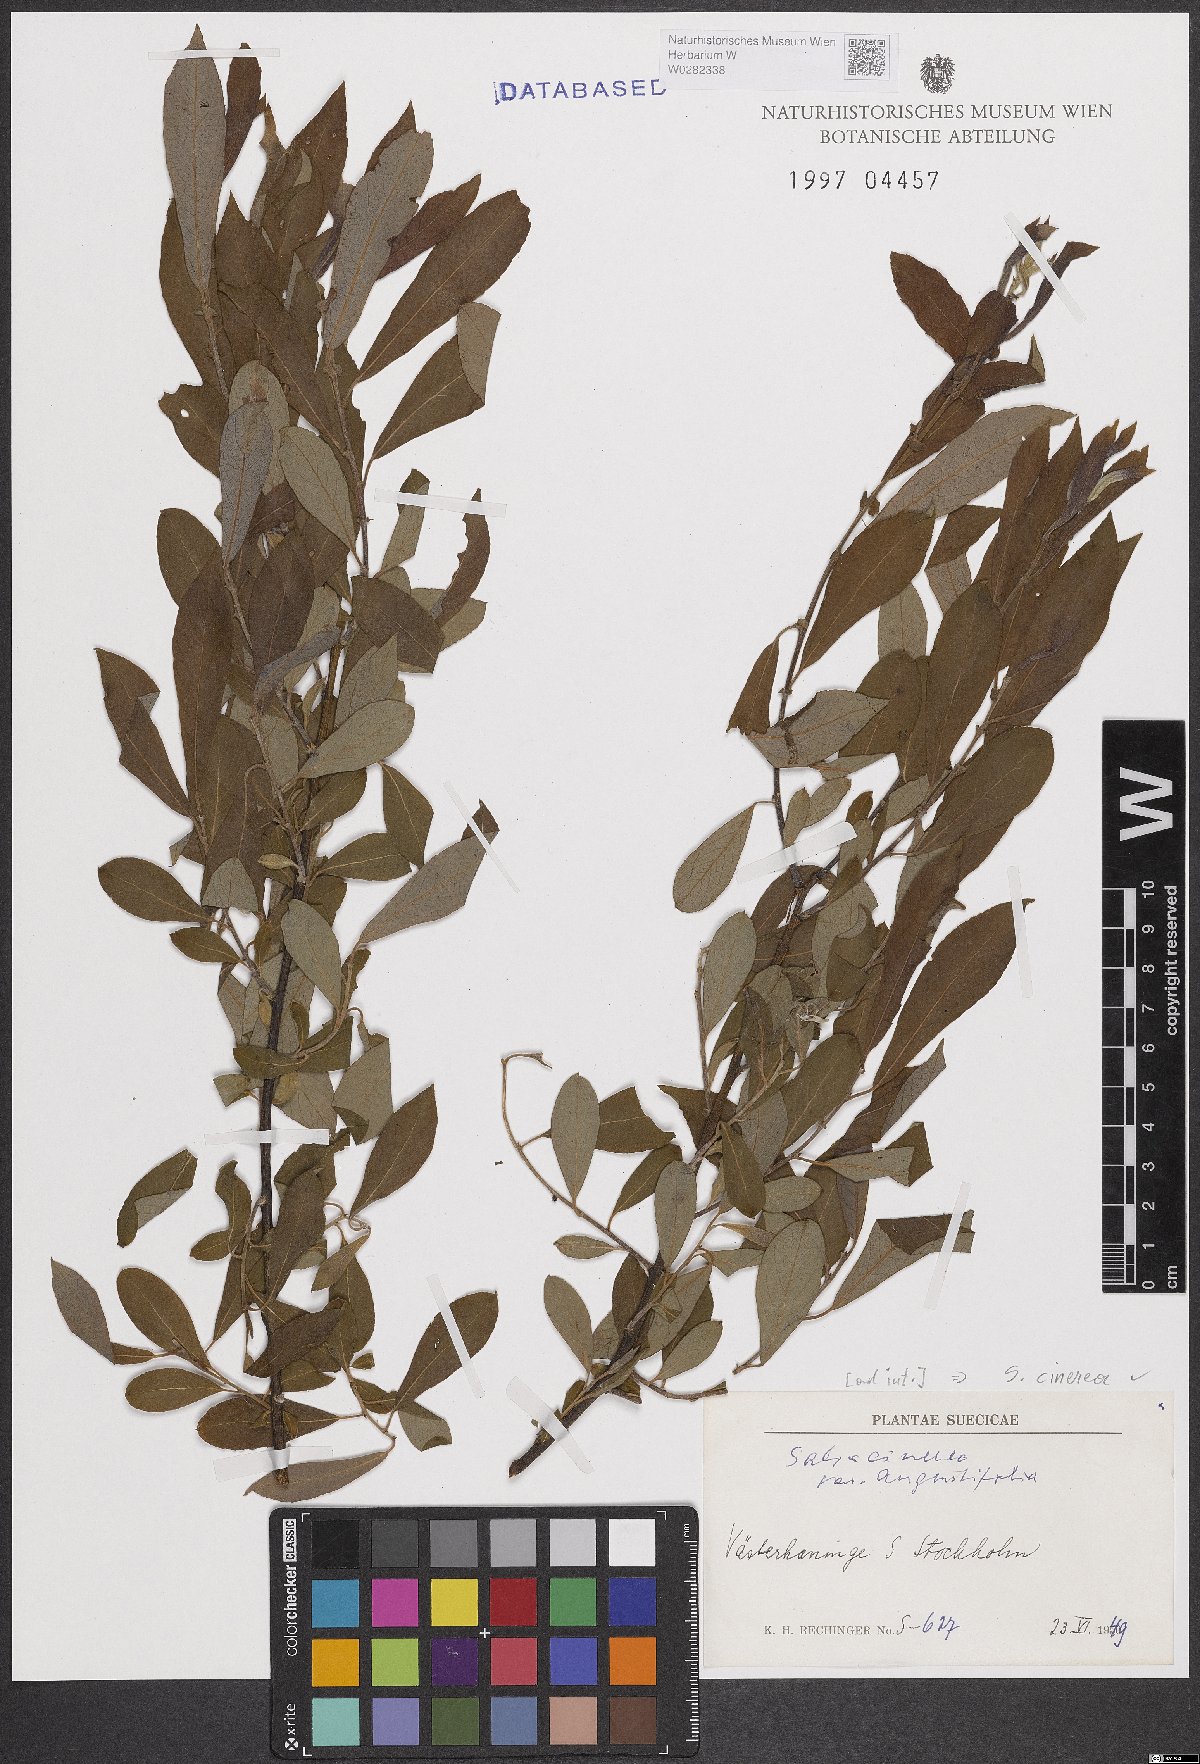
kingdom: Plantae
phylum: Tracheophyta
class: Magnoliopsida
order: Malpighiales
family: Salicaceae
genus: Salix
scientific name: Salix cinerea
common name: Common sallow
